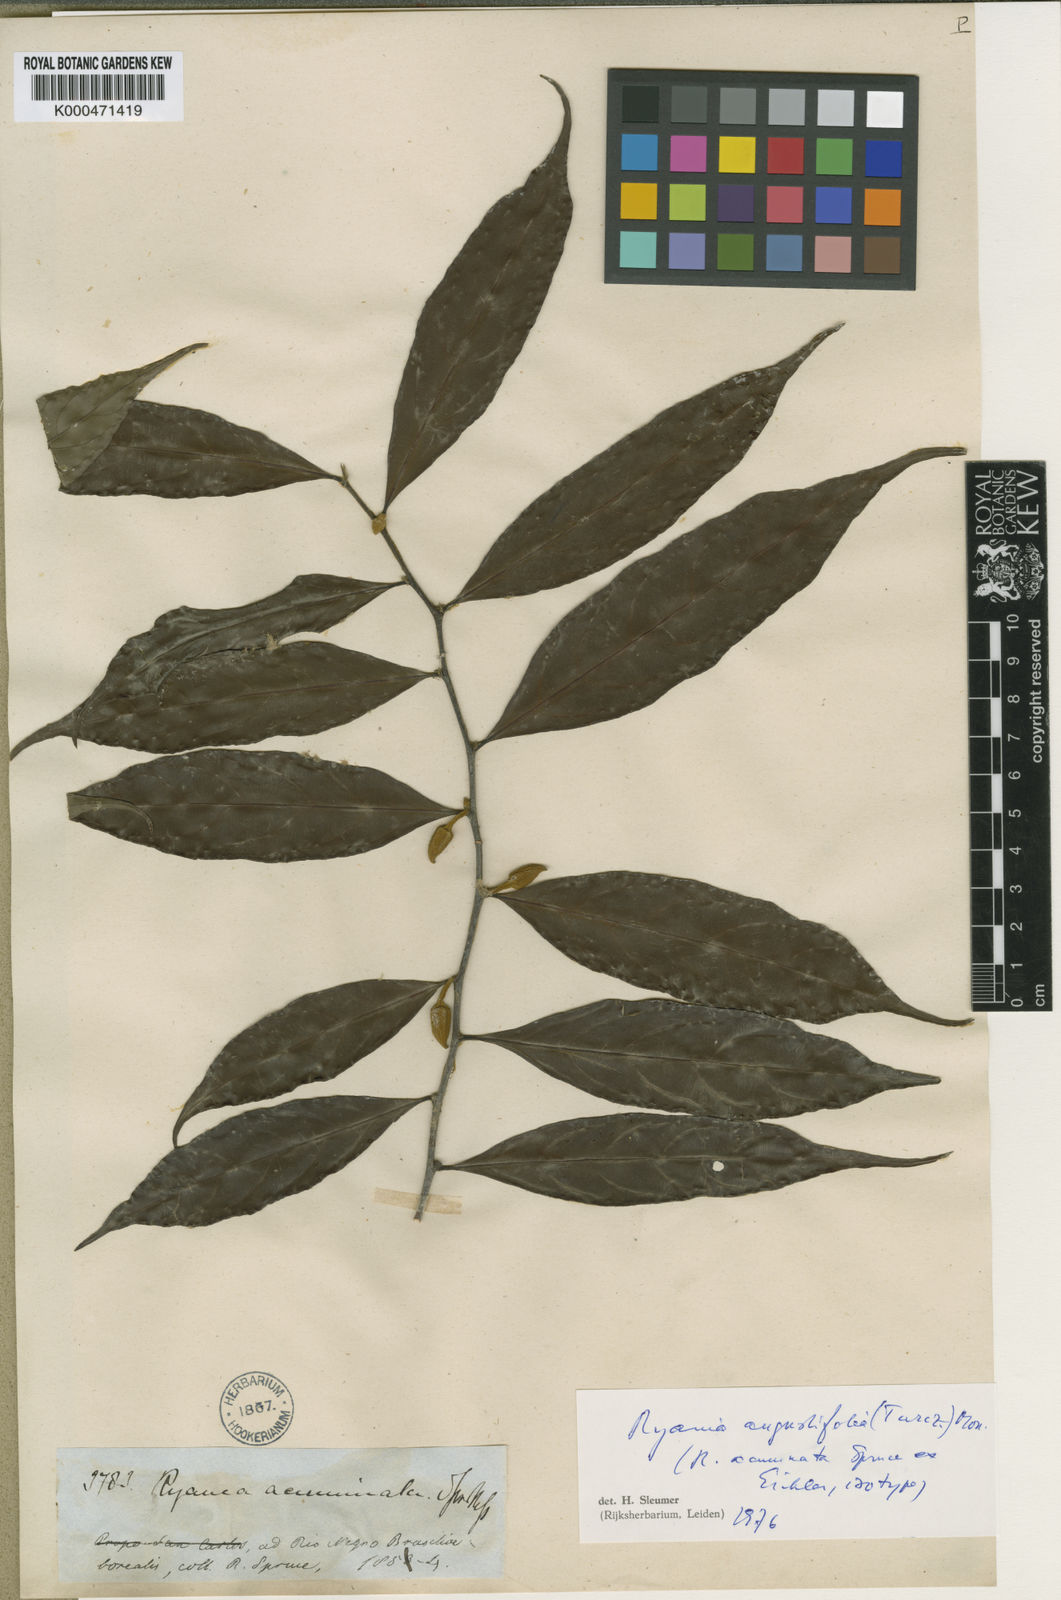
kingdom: Plantae
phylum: Tracheophyta
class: Magnoliopsida
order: Malpighiales
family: Salicaceae
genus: Ryania
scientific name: Ryania angustifolia
